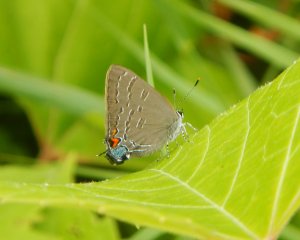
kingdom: Animalia
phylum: Arthropoda
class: Insecta
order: Lepidoptera
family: Lycaenidae
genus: Satyrium
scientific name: Satyrium calanus
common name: Banded Hairstreak
